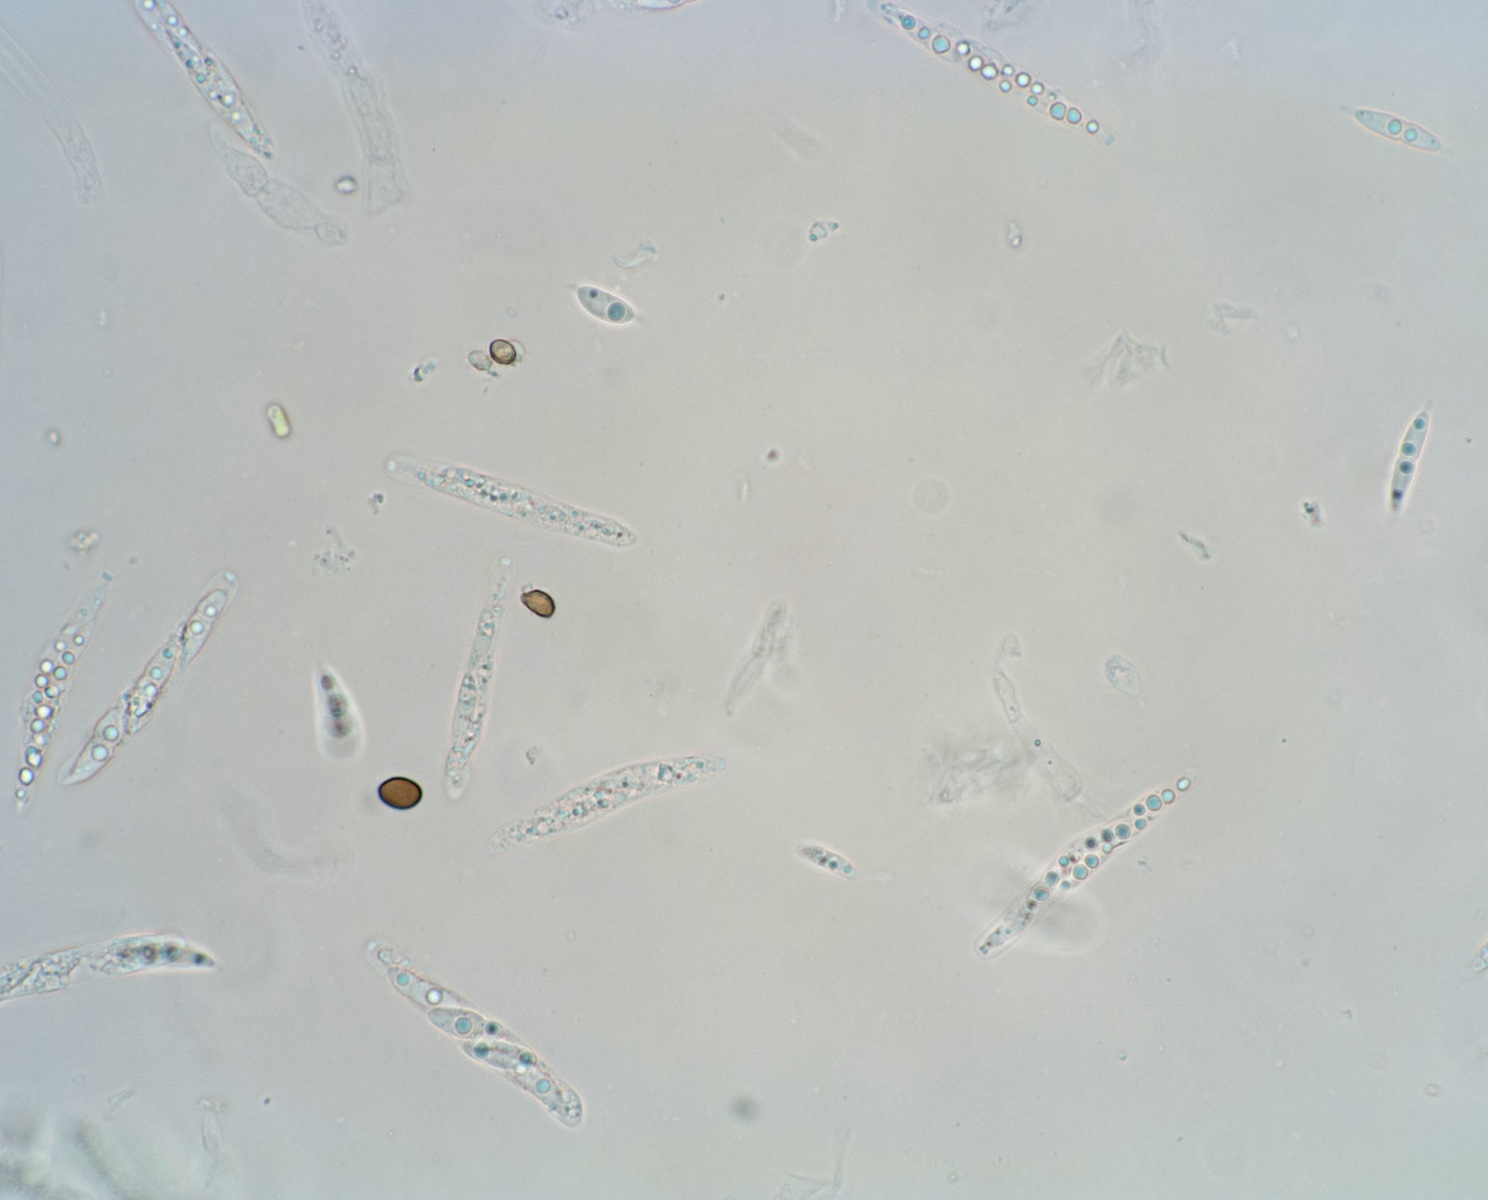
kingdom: Fungi
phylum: Ascomycota
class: Sordariomycetes
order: Diaporthales
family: Sydowiellaceae
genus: Breviappendix
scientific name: Breviappendix rostellata
